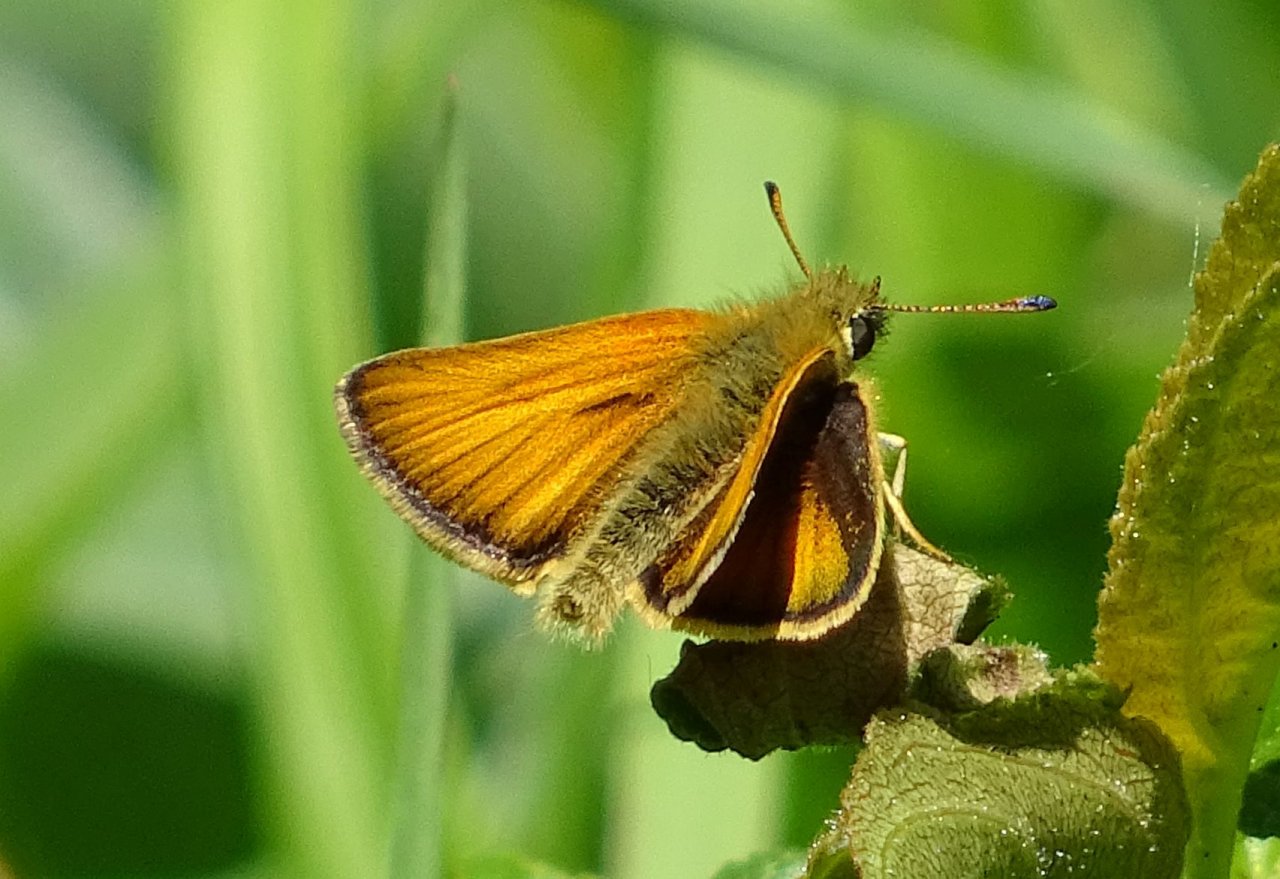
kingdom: Animalia
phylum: Arthropoda
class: Insecta
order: Lepidoptera
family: Hesperiidae
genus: Thymelicus
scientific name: Thymelicus lineola
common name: European Skipper
